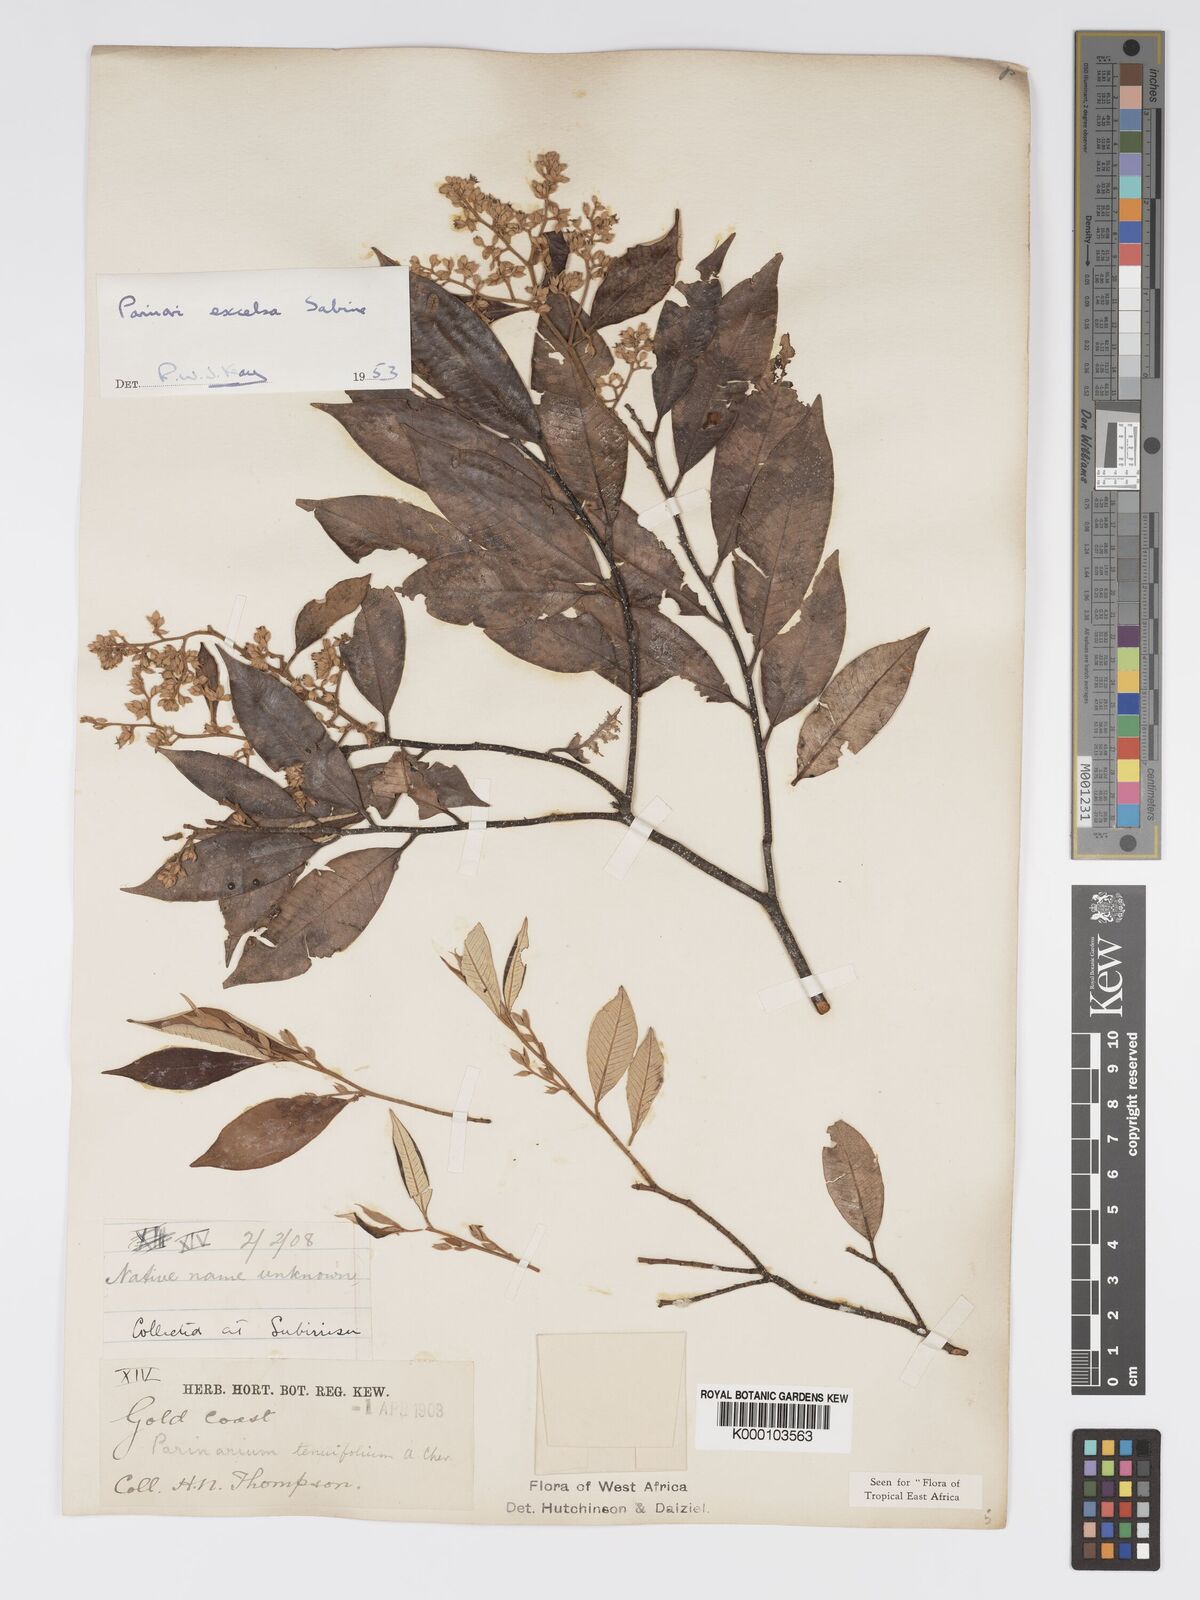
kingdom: Plantae
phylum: Tracheophyta
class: Magnoliopsida
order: Malpighiales
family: Chrysobalanaceae
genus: Parinari
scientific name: Parinari excelsa
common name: Guinea-plum
